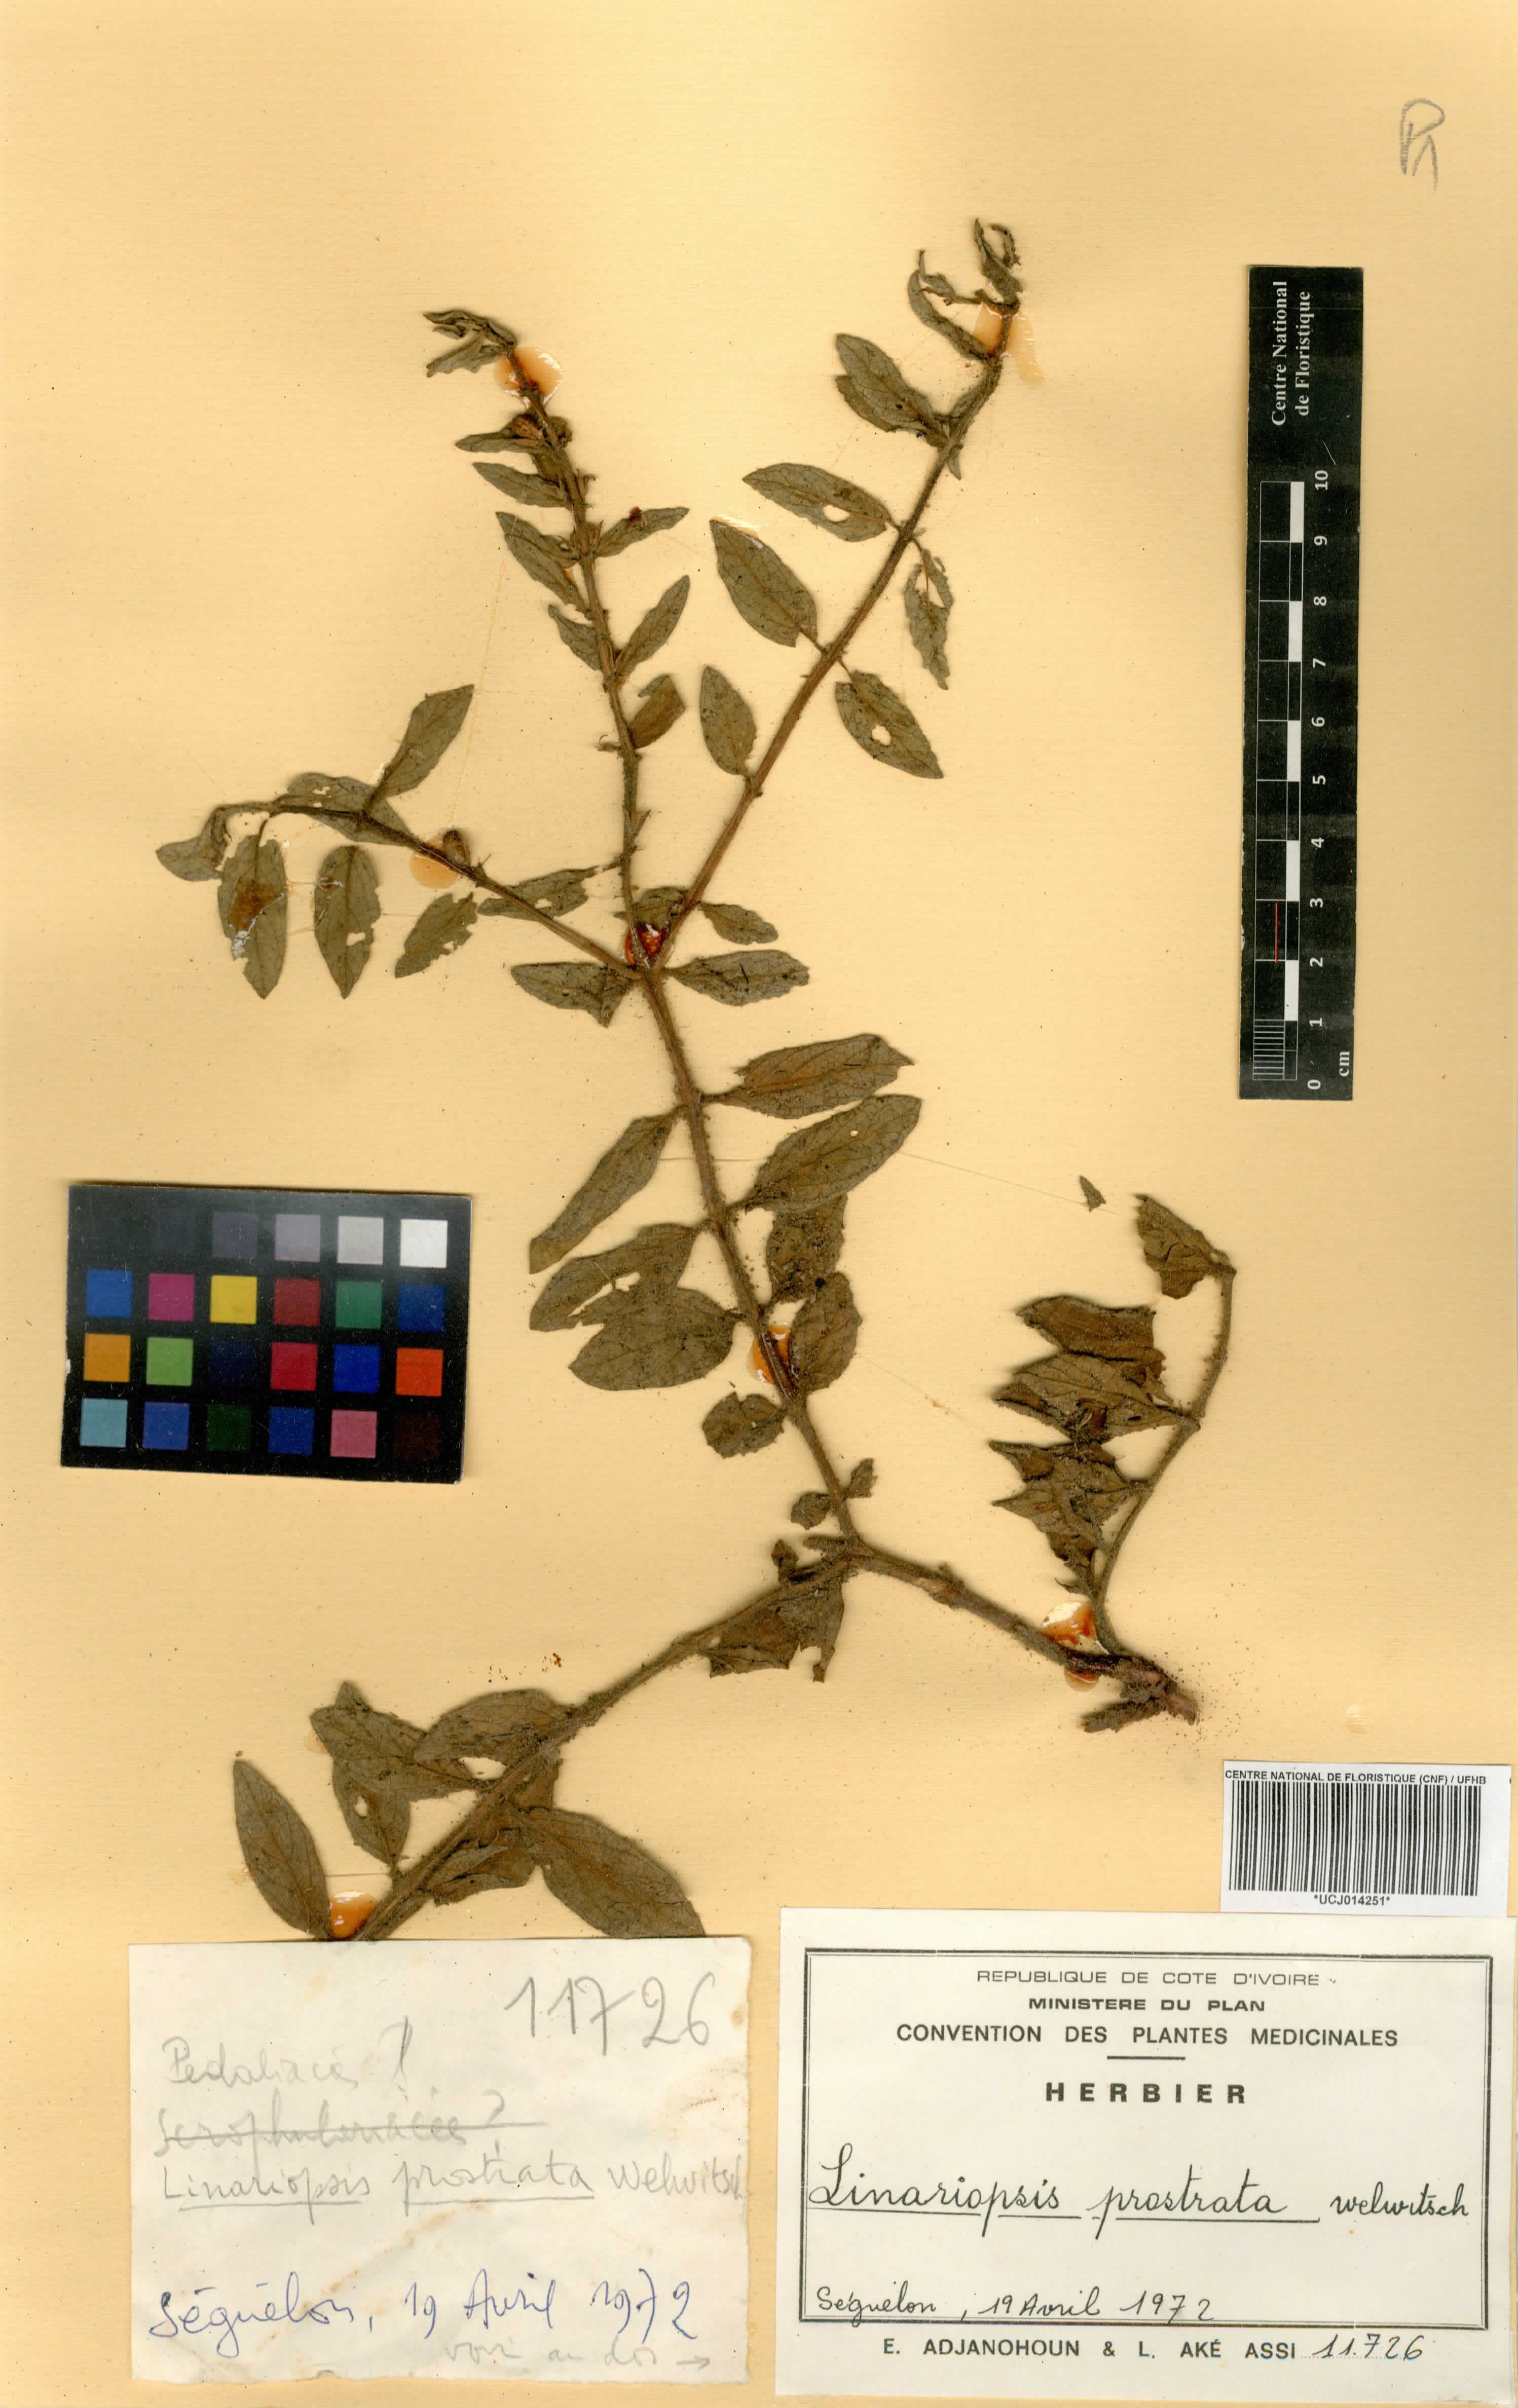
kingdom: Plantae
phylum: Tracheophyta
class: Magnoliopsida
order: Lamiales
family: Pedaliaceae
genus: Linariopsis
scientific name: Linariopsis prostrata
